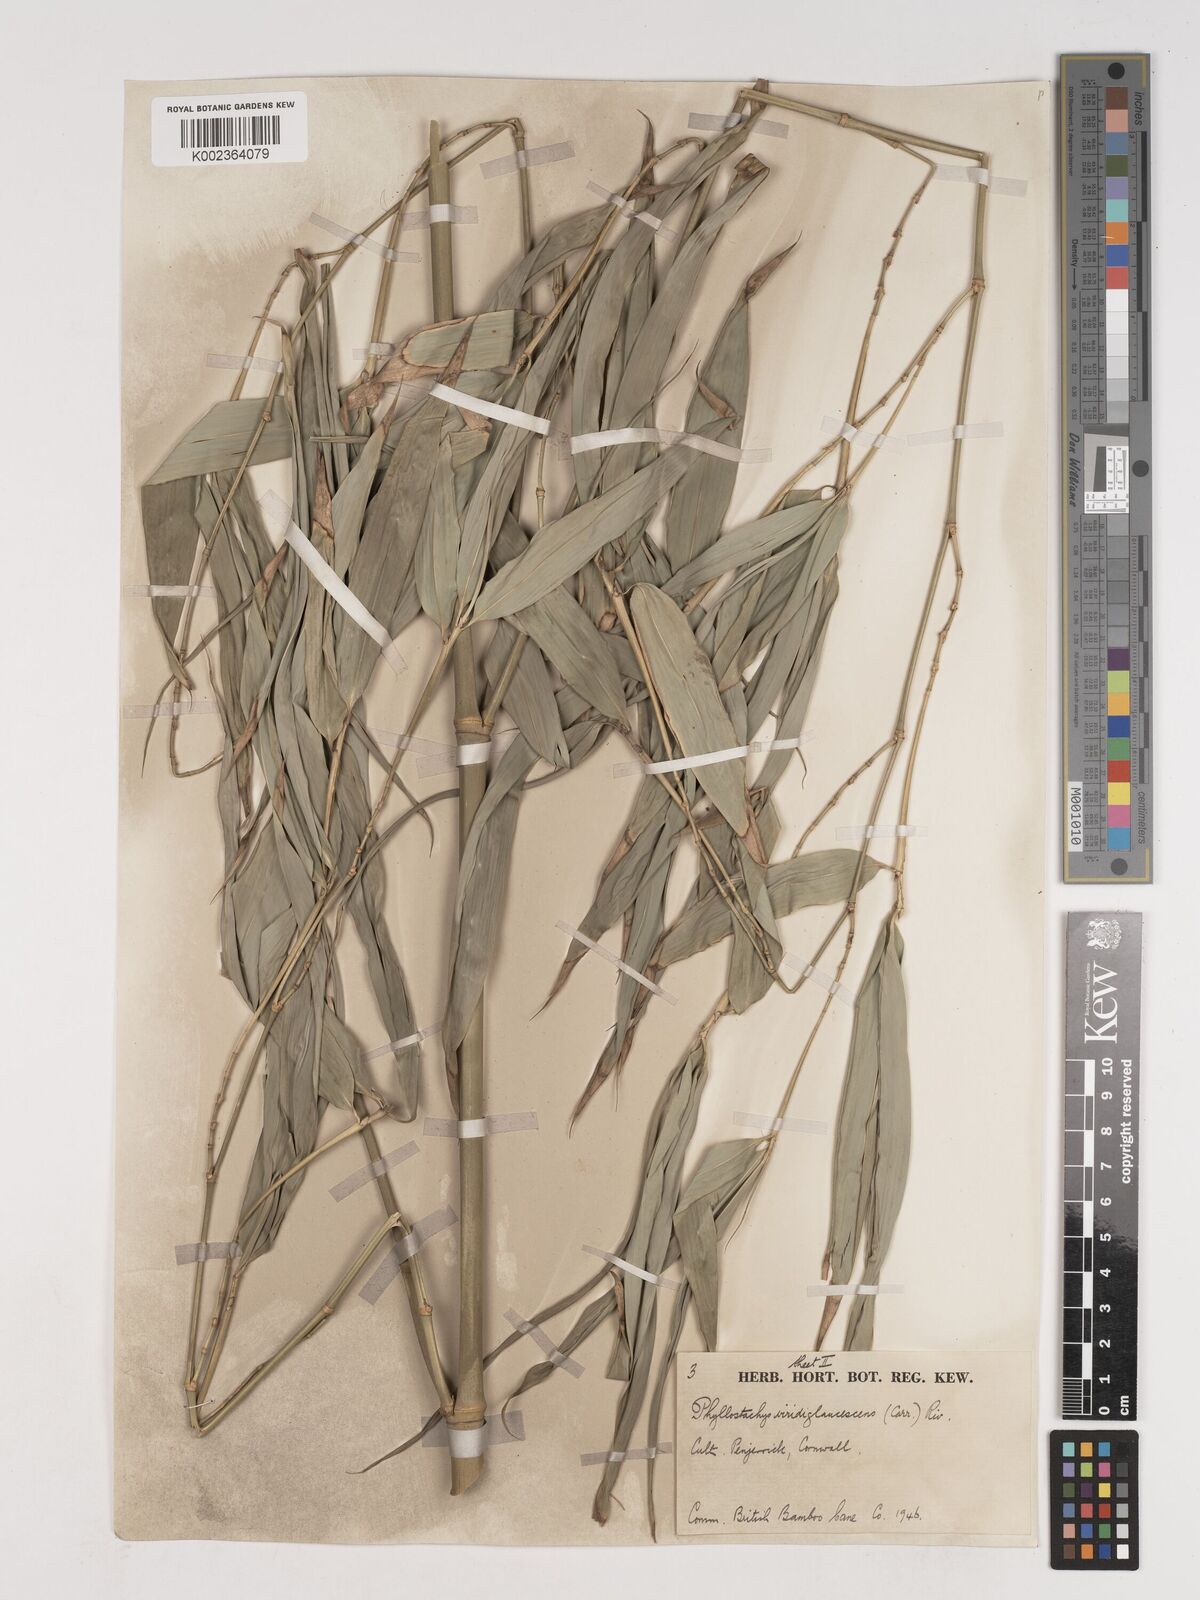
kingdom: Plantae
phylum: Tracheophyta
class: Liliopsida
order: Poales
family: Poaceae
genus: Phyllostachys
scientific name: Phyllostachys viridiglaucescens
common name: Greenwax golden bamboo
